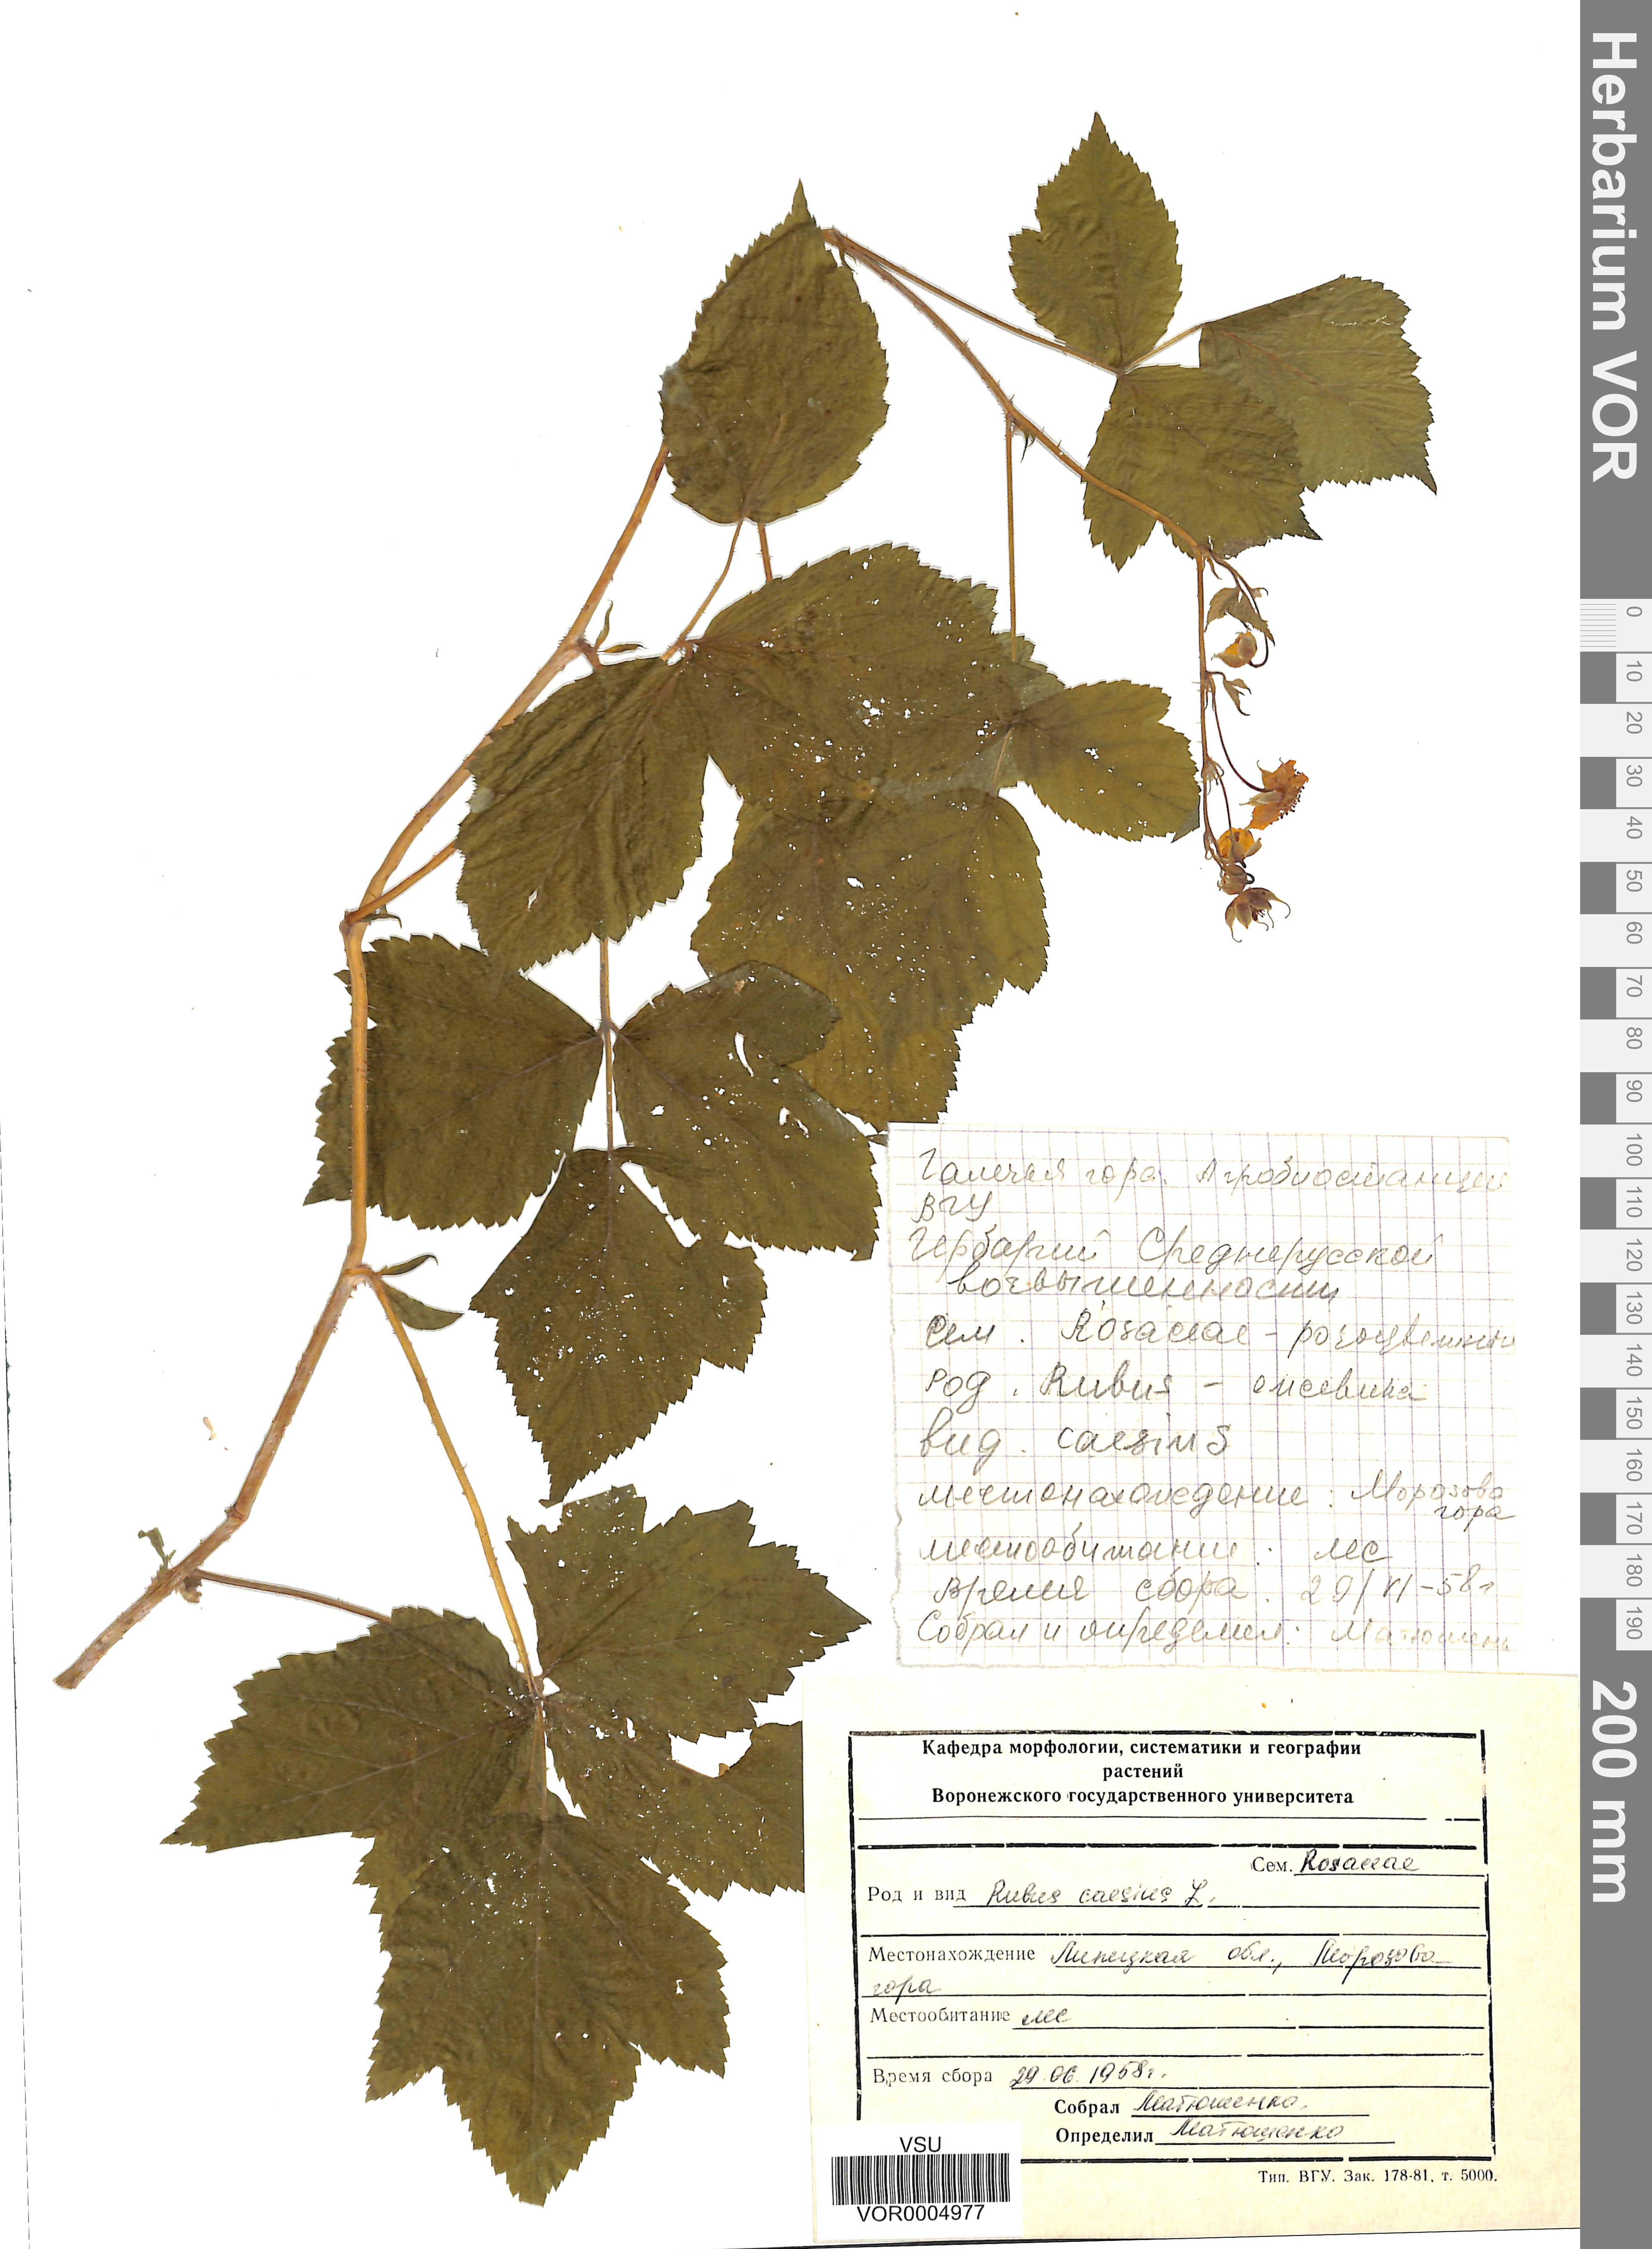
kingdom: Plantae
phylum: Tracheophyta
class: Magnoliopsida
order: Rosales
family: Rosaceae
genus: Rubus
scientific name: Rubus caesius
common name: Dewberry
